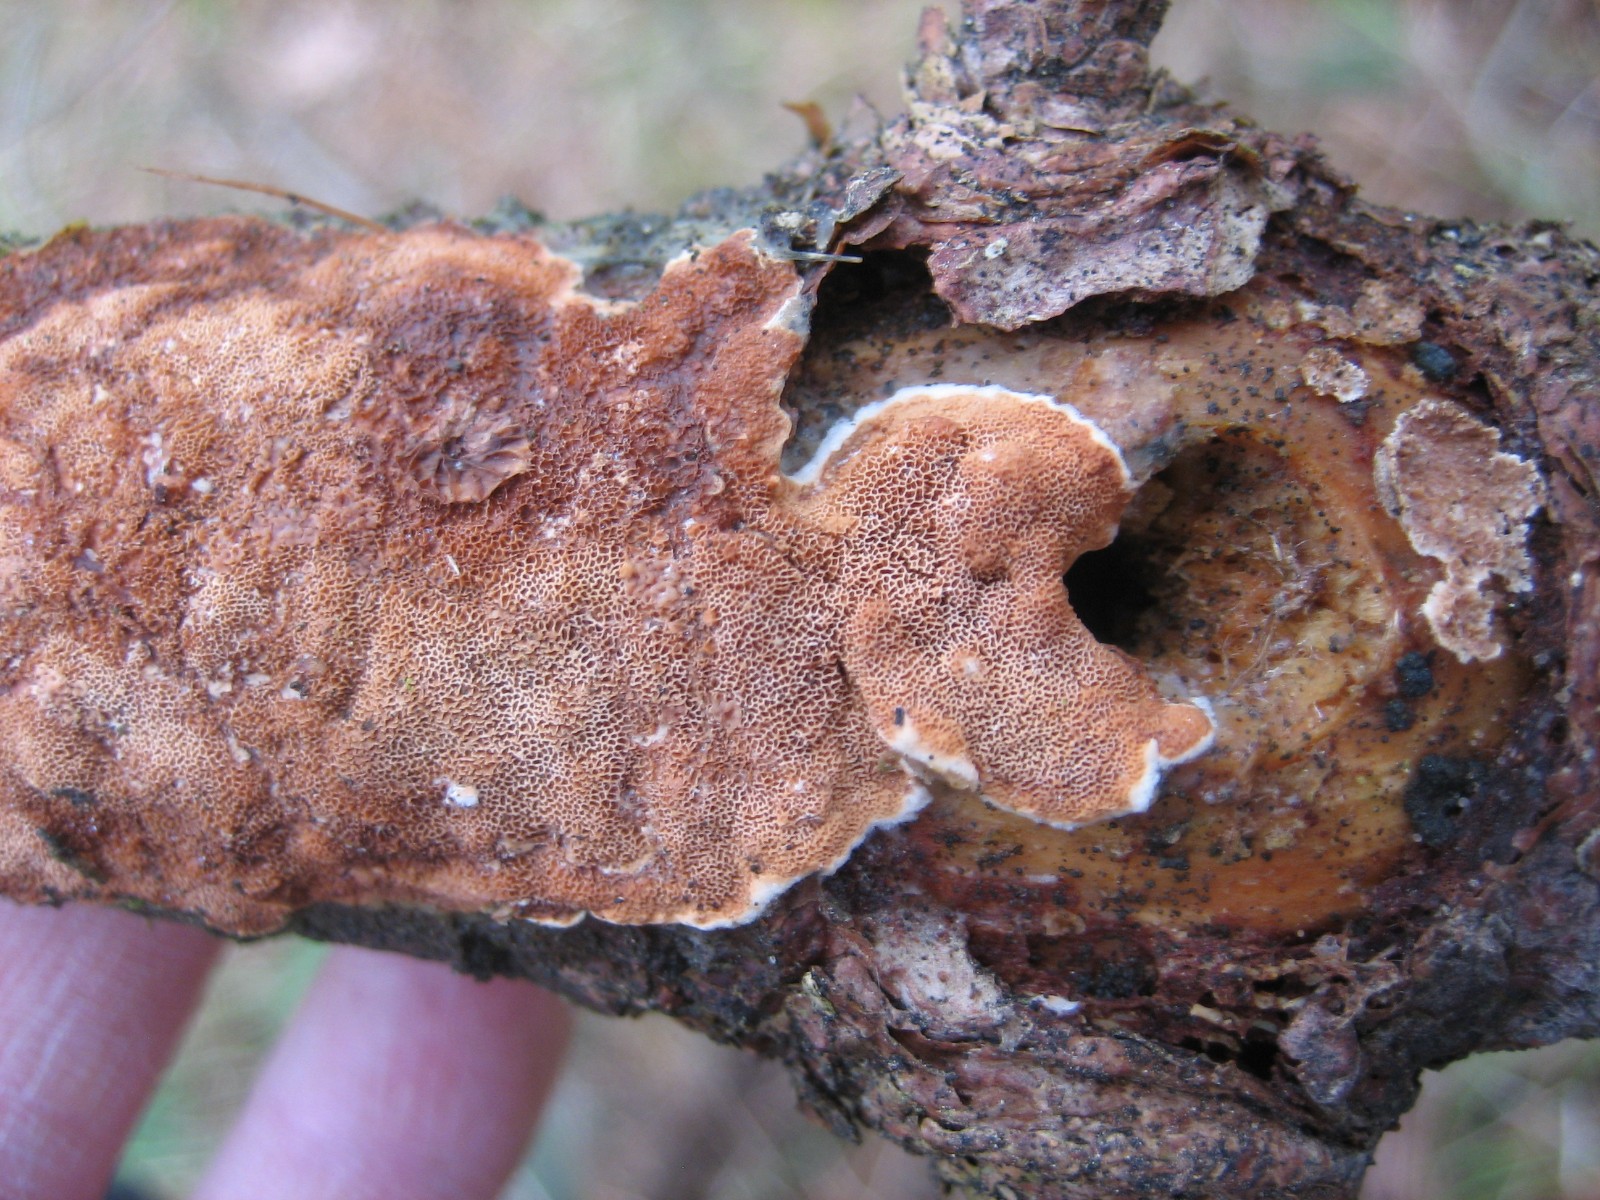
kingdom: Fungi
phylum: Basidiomycota
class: Agaricomycetes
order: Polyporales
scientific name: Polyporales
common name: poresvampordenen
